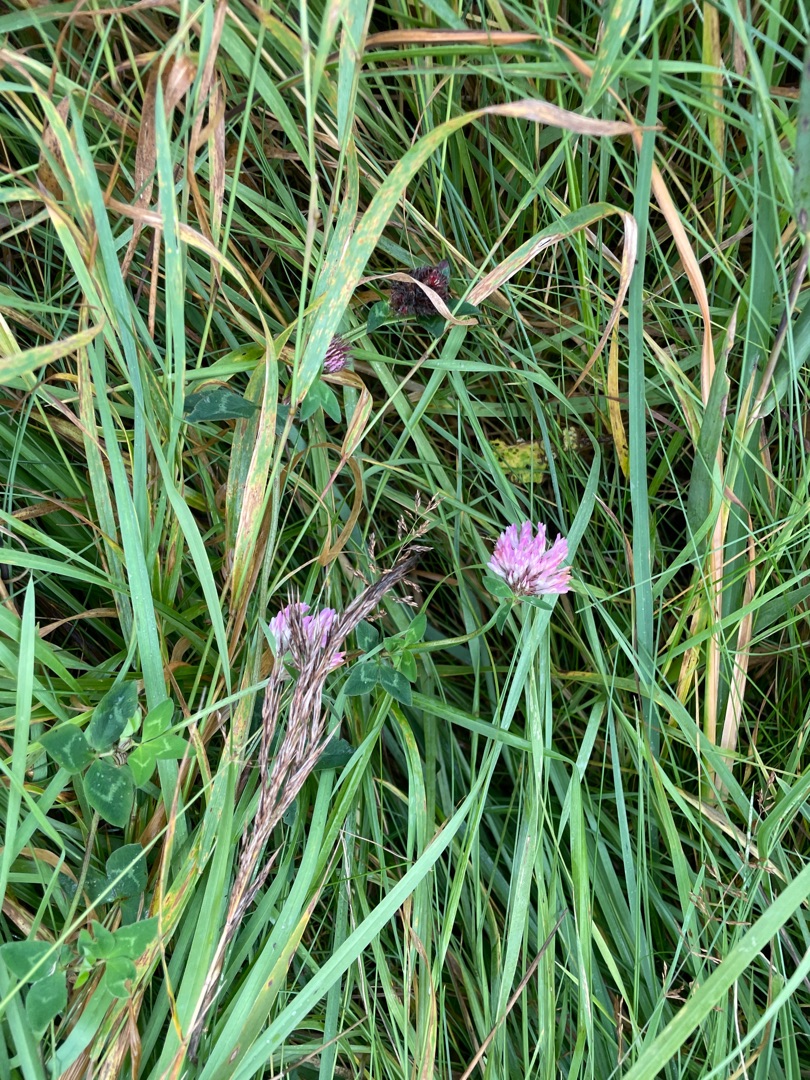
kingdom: Plantae
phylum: Tracheophyta
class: Magnoliopsida
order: Fabales
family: Fabaceae
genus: Trifolium
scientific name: Trifolium pratense
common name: Rød-kløver
